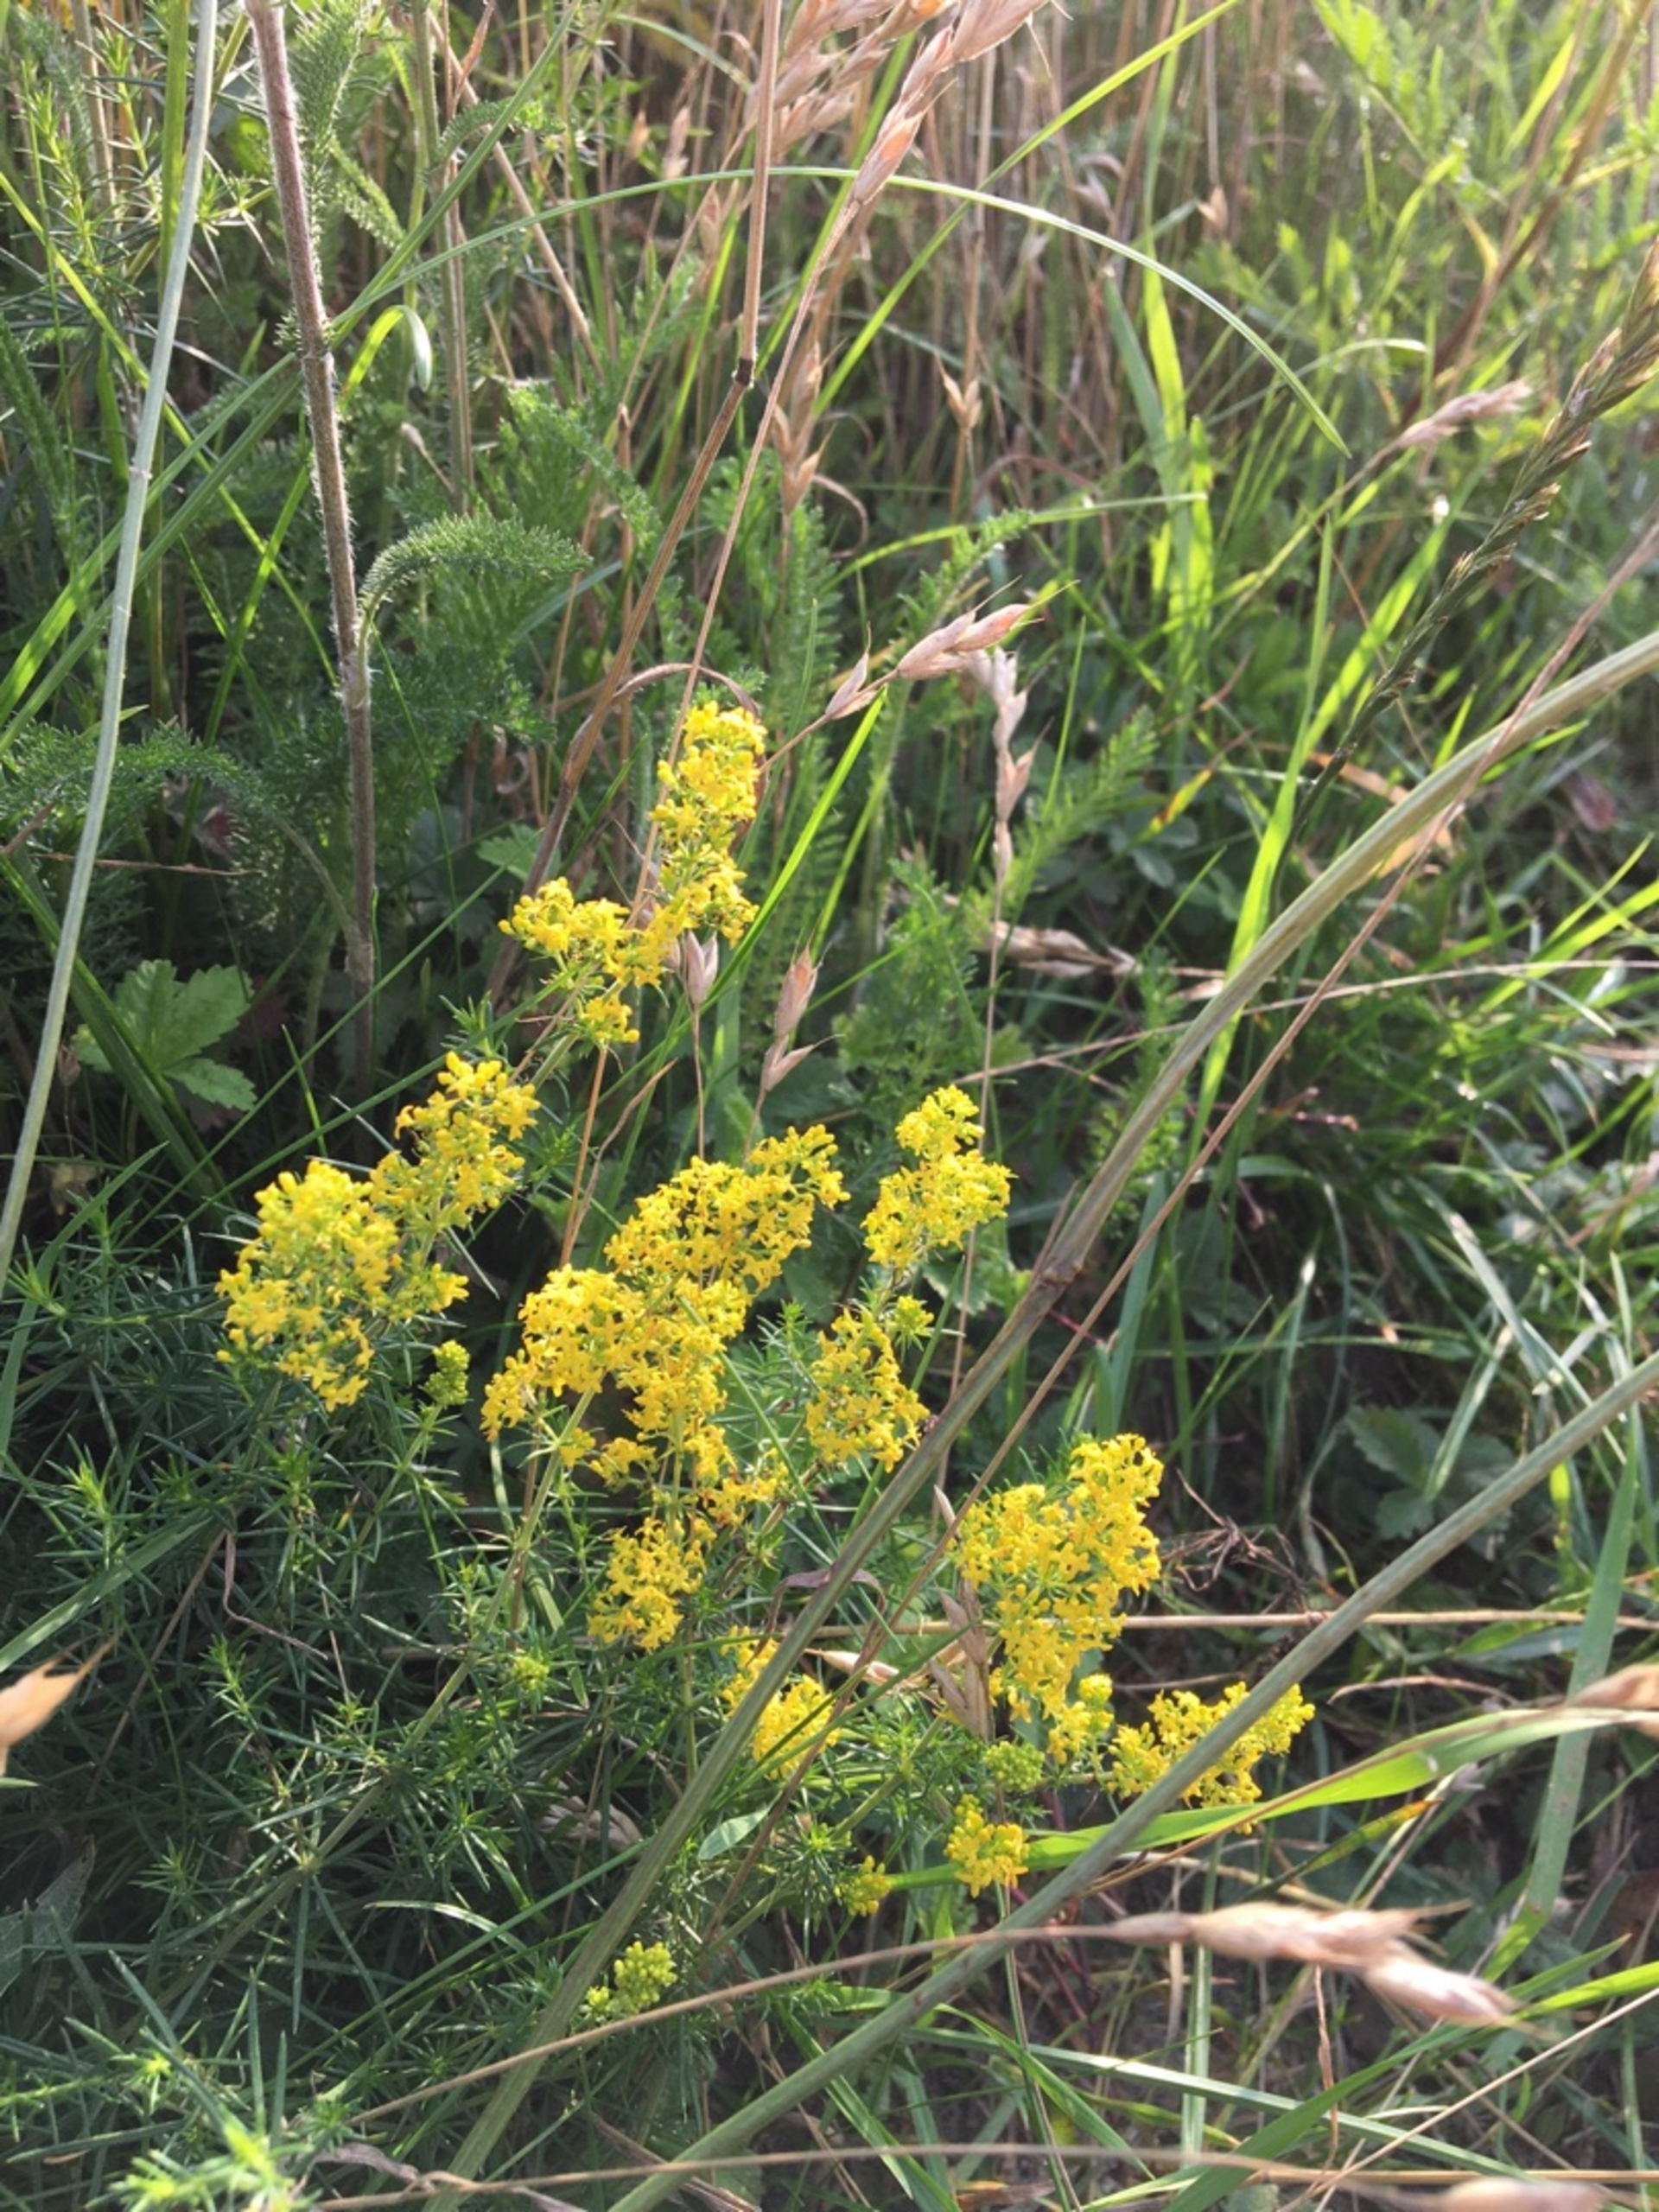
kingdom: Plantae
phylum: Tracheophyta
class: Magnoliopsida
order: Gentianales
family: Rubiaceae
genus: Galium
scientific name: Galium verum
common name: Gul snerre
